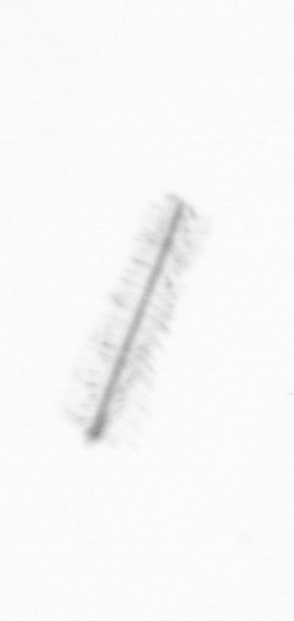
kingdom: Chromista
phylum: Ochrophyta
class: Bacillariophyceae
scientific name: Bacillariophyceae
